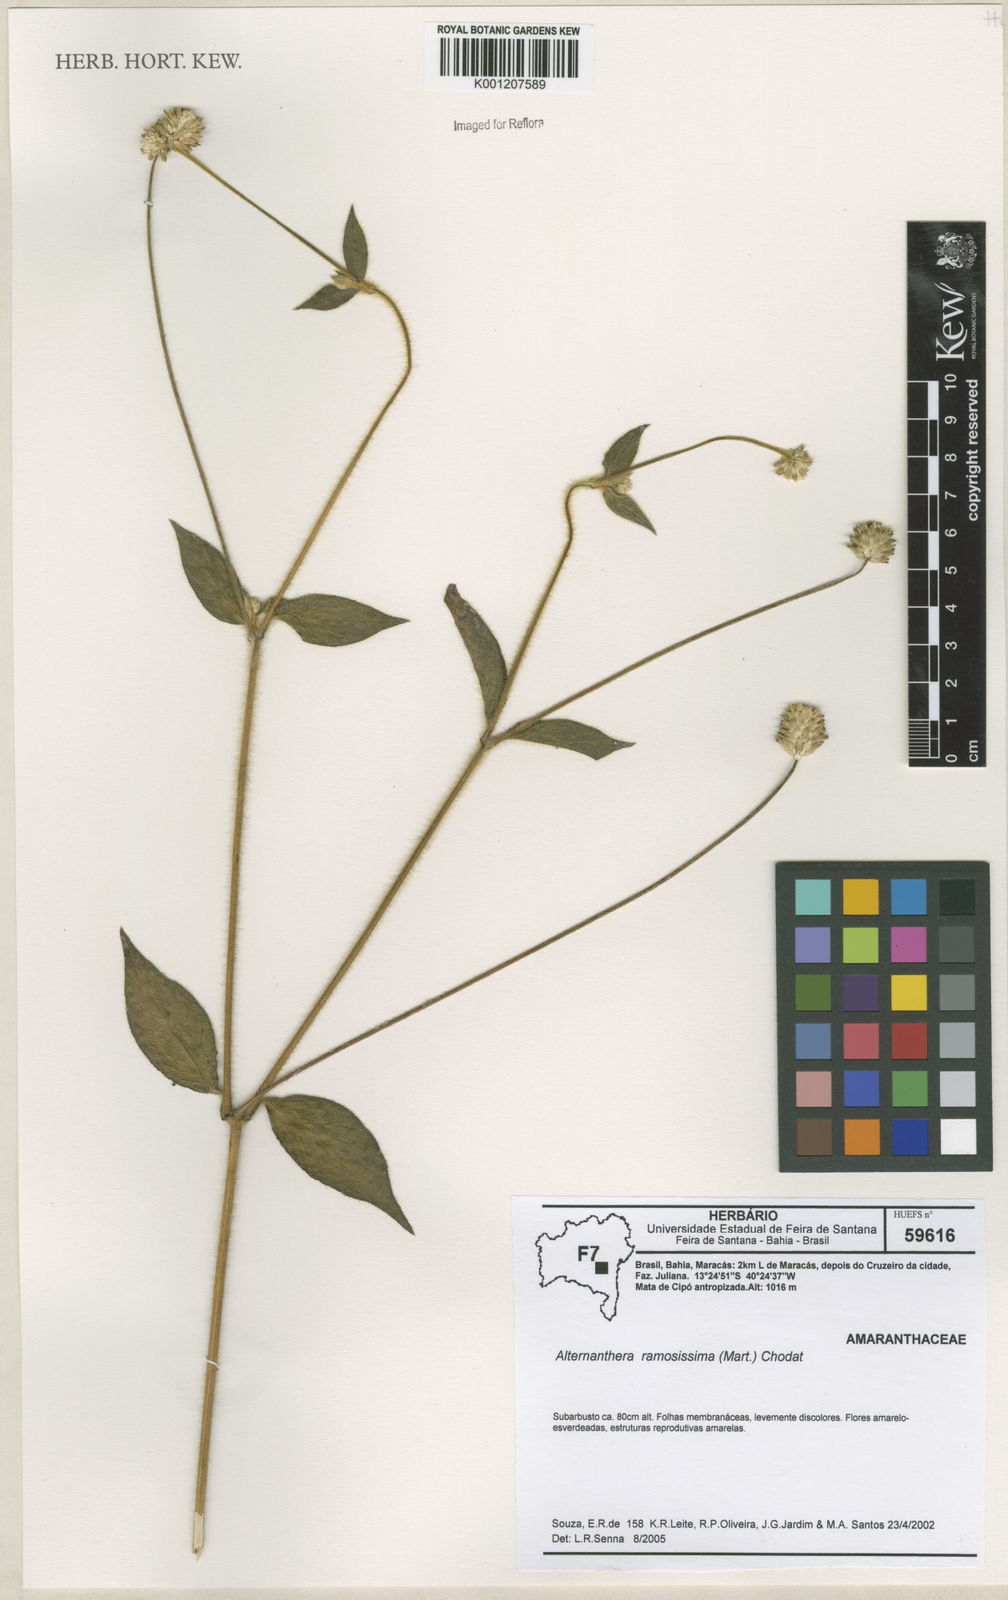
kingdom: Plantae
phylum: Tracheophyta
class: Magnoliopsida
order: Caryophyllales
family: Amaranthaceae
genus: Alternanthera
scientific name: Alternanthera ramosissima
